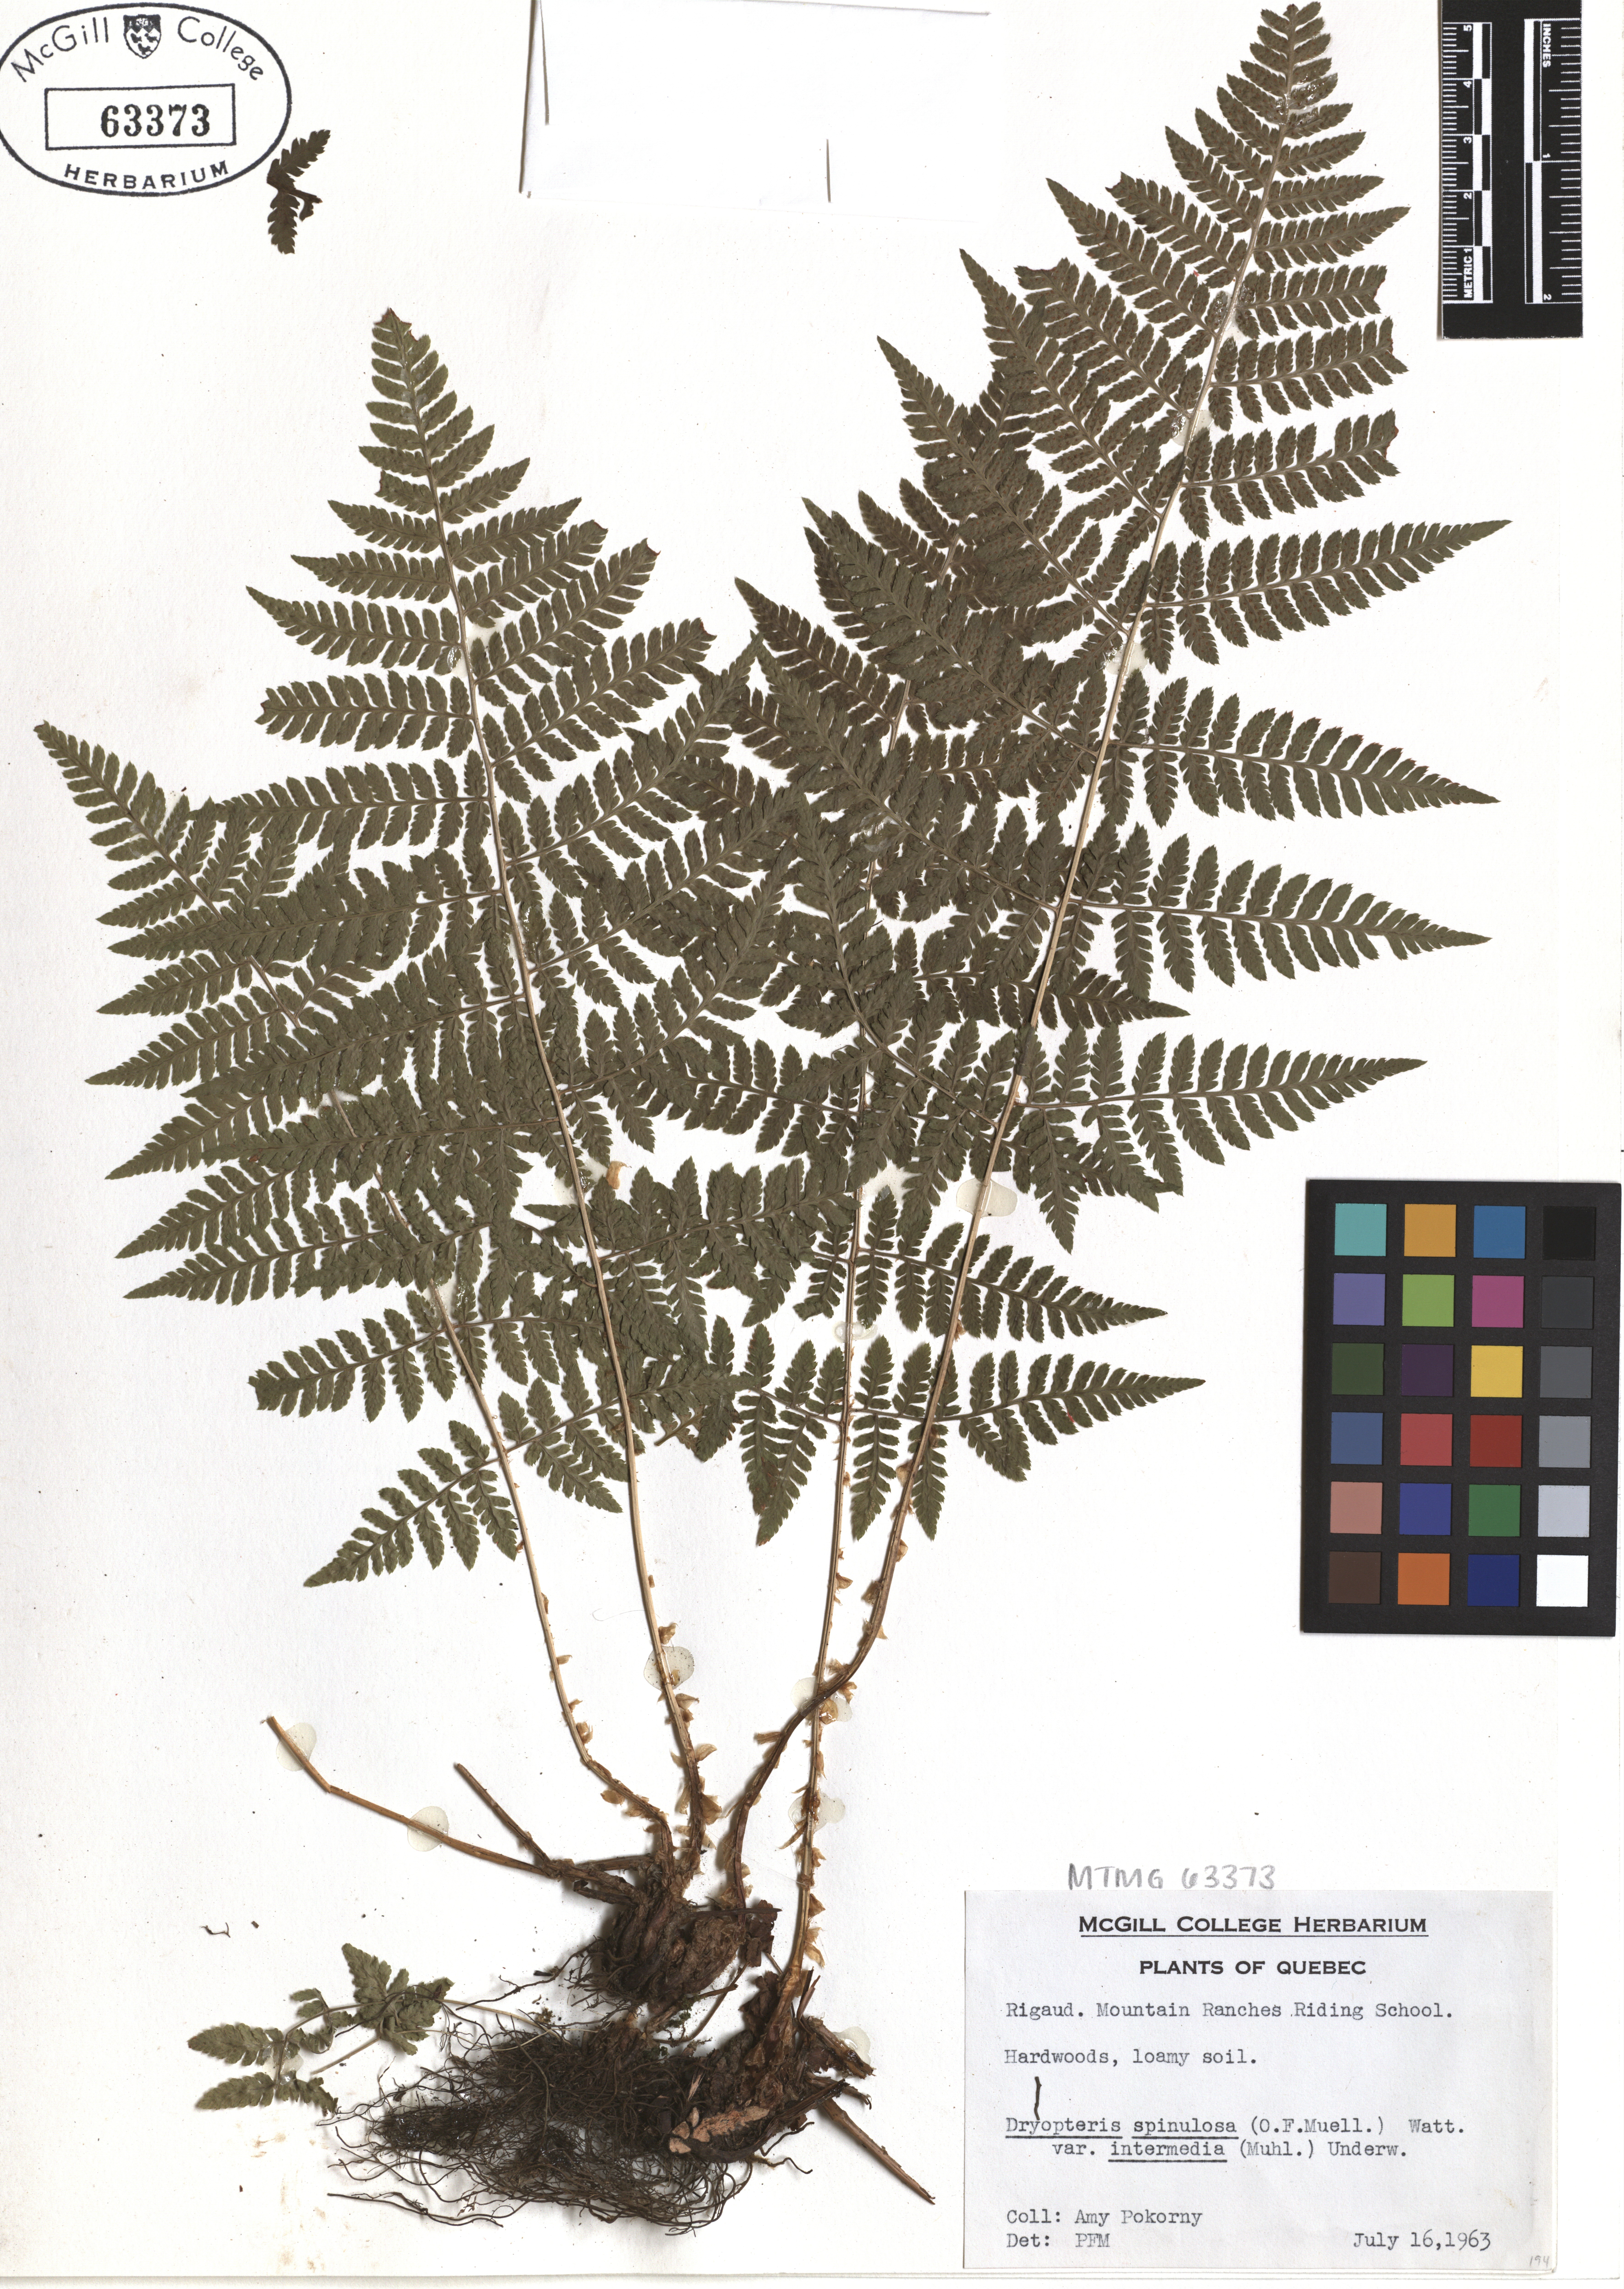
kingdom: Plantae
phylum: Tracheophyta
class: Polypodiopsida
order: Polypodiales
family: Dryopteridaceae
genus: Dryopteris
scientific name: Dryopteris intermedia
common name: Evergreen wood fern
